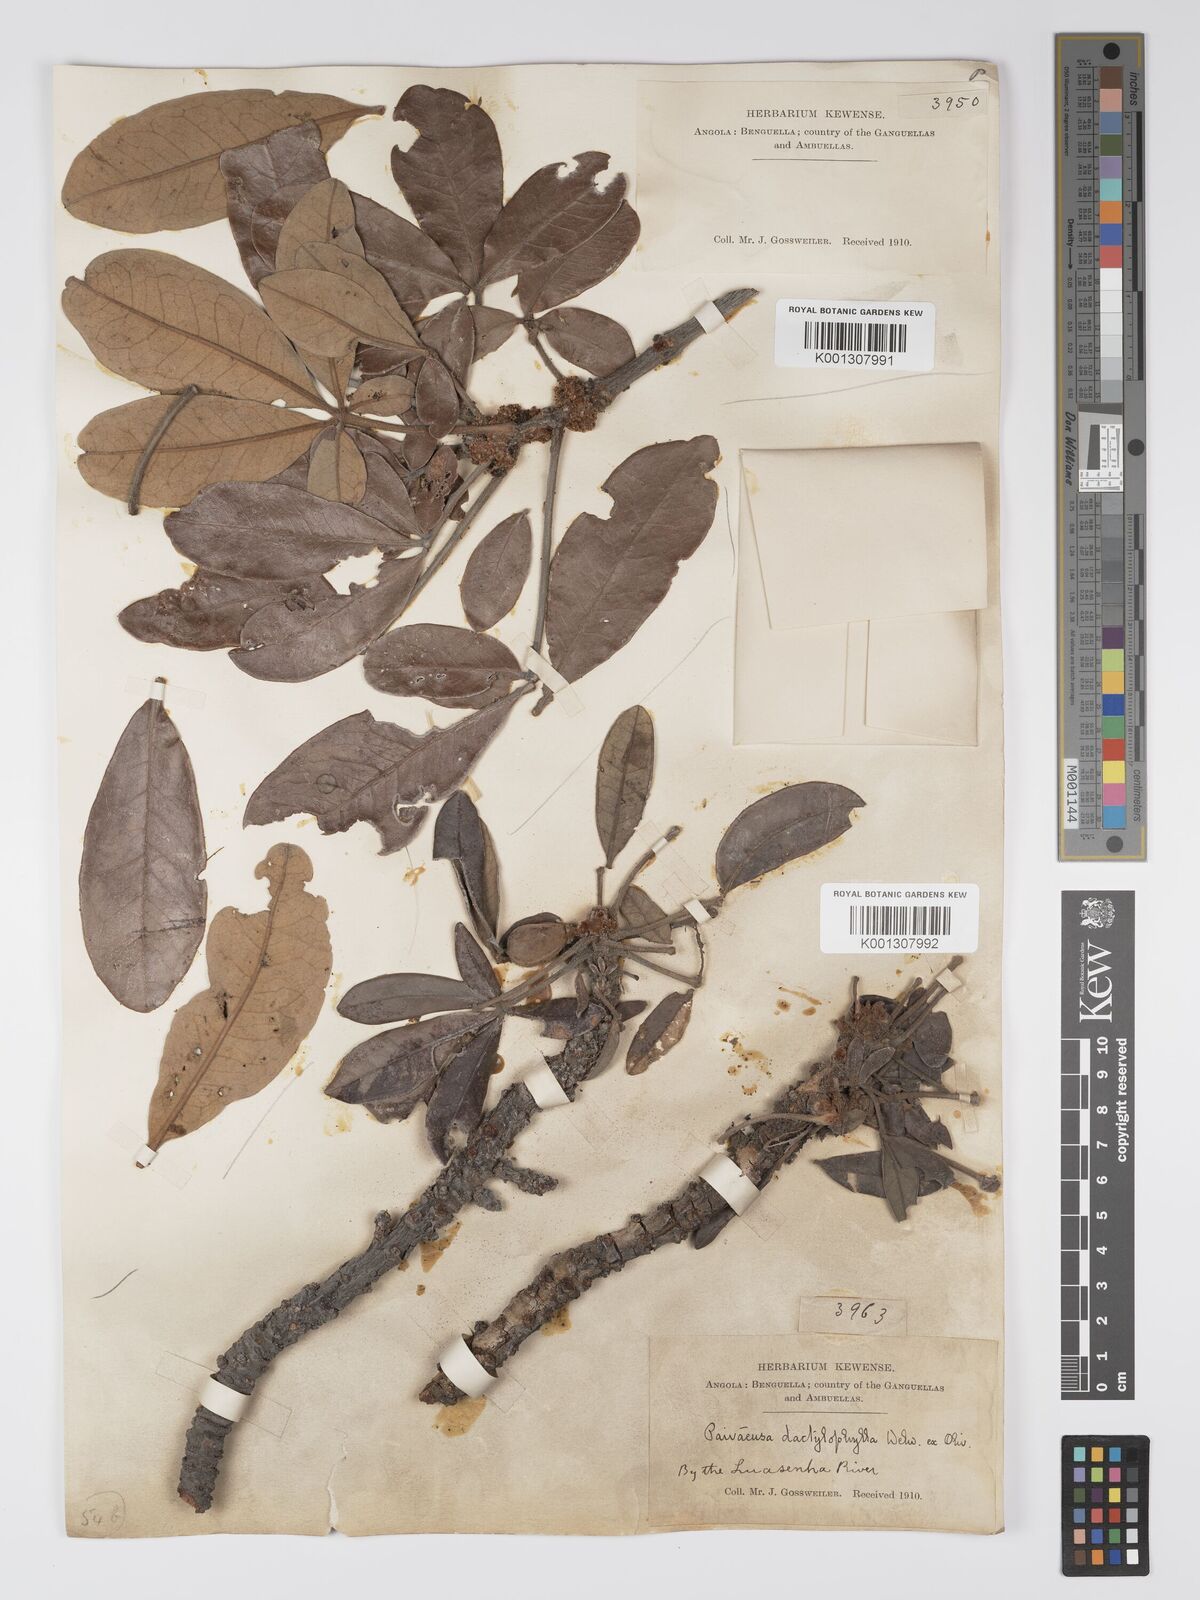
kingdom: Plantae
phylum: Tracheophyta
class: Magnoliopsida
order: Malpighiales
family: Picrodendraceae
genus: Oldfieldia
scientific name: Oldfieldia dactylophylla
